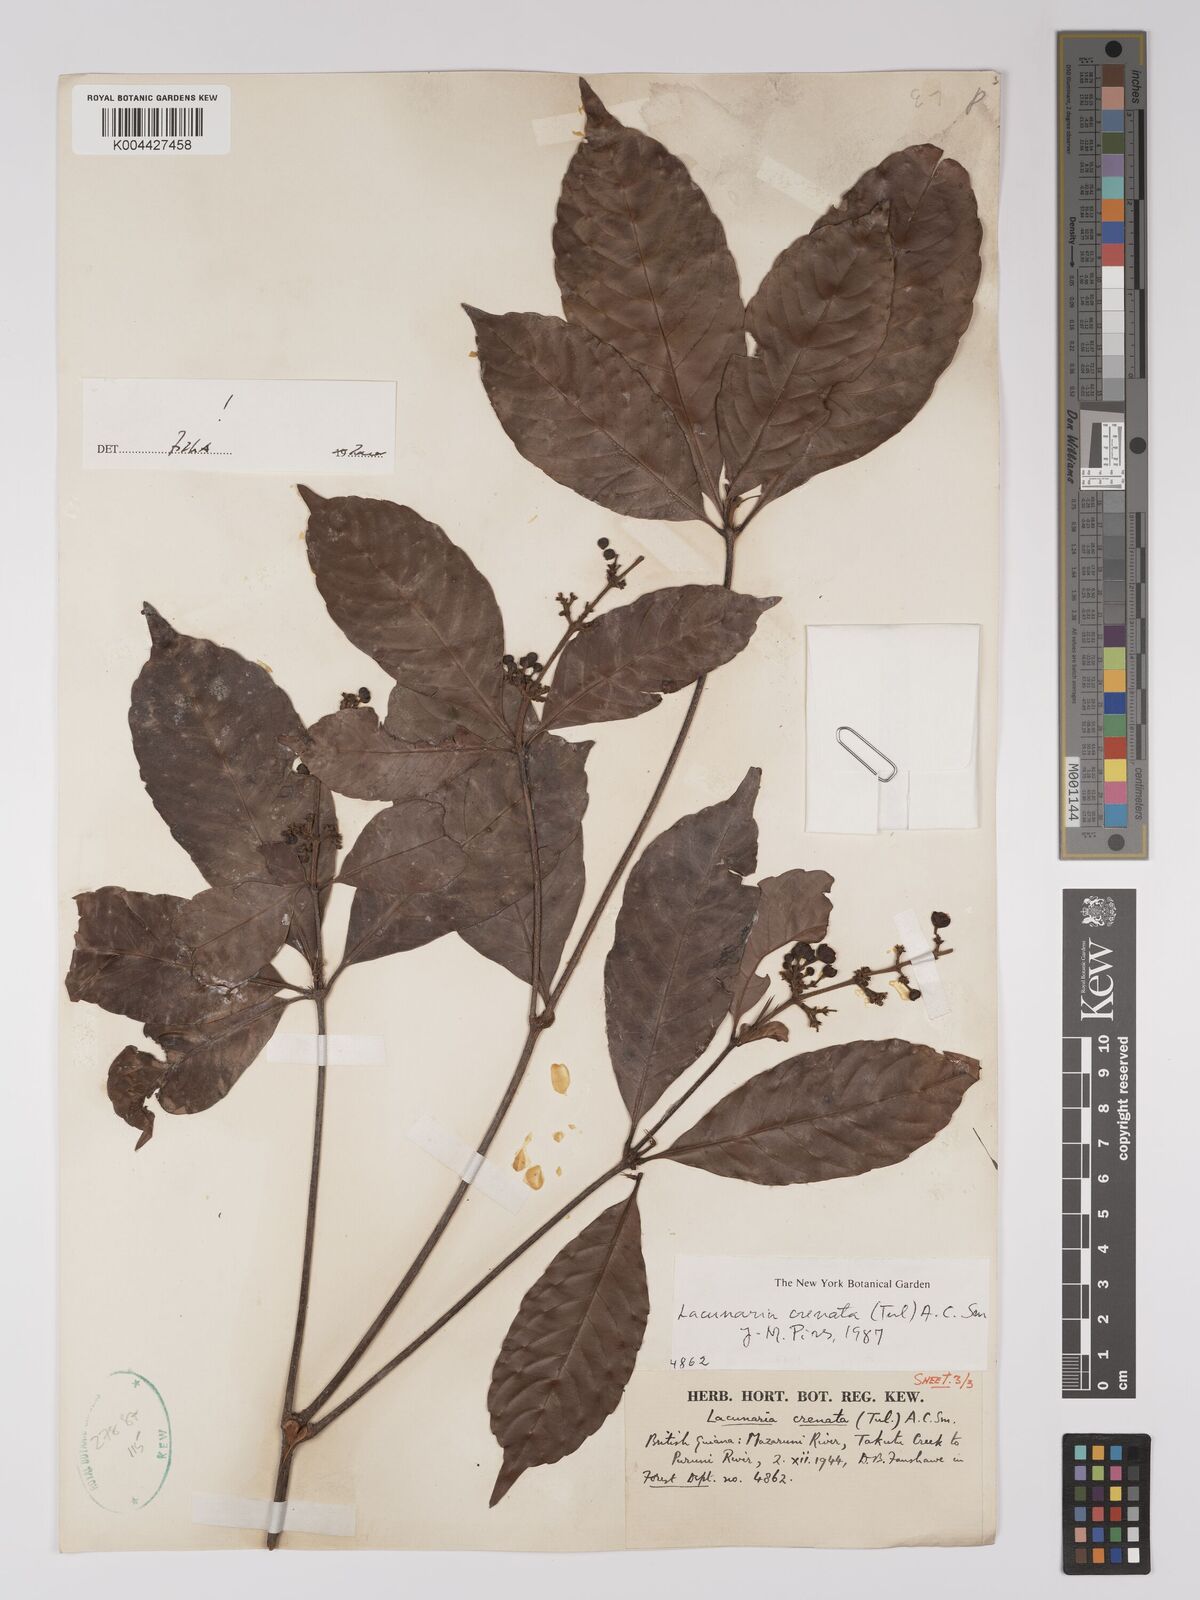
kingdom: Plantae
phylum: Tracheophyta
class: Magnoliopsida
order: Malpighiales
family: Quiinaceae
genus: Lacunaria
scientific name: Lacunaria crenata
